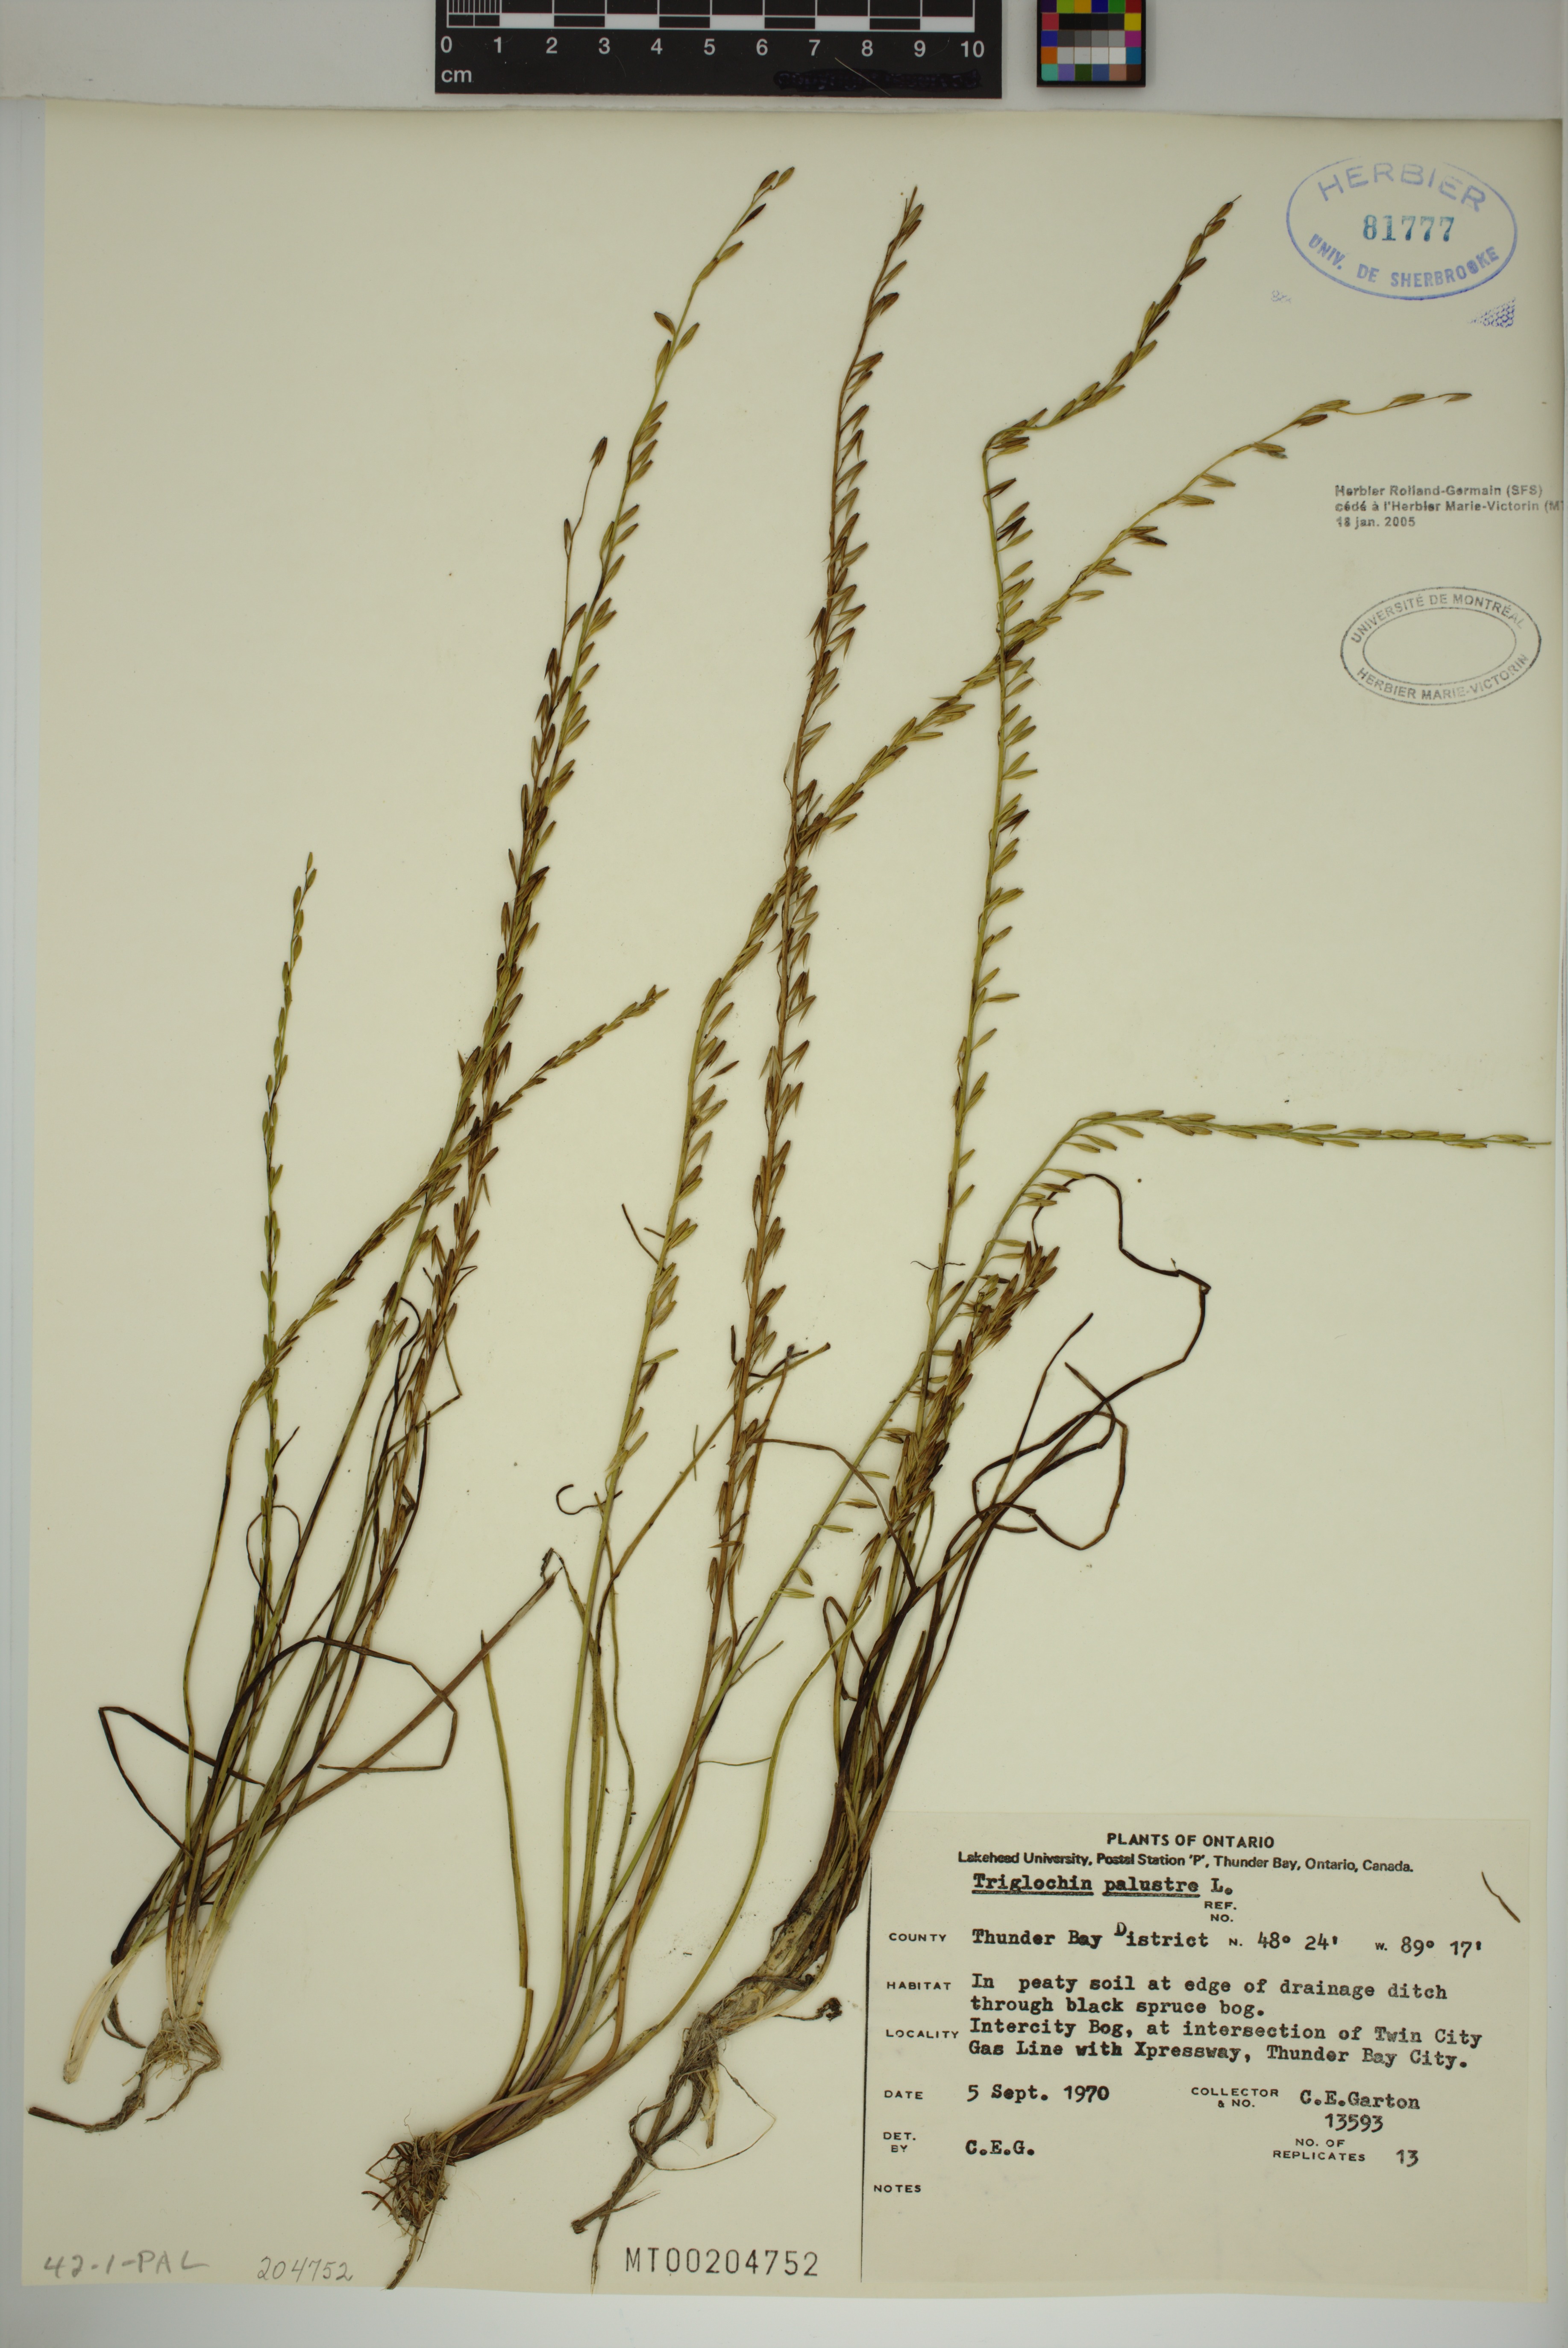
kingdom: Plantae
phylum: Tracheophyta
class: Liliopsida
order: Alismatales
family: Juncaginaceae
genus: Triglochin
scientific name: Triglochin palustris
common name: Marsh arrowgrass
